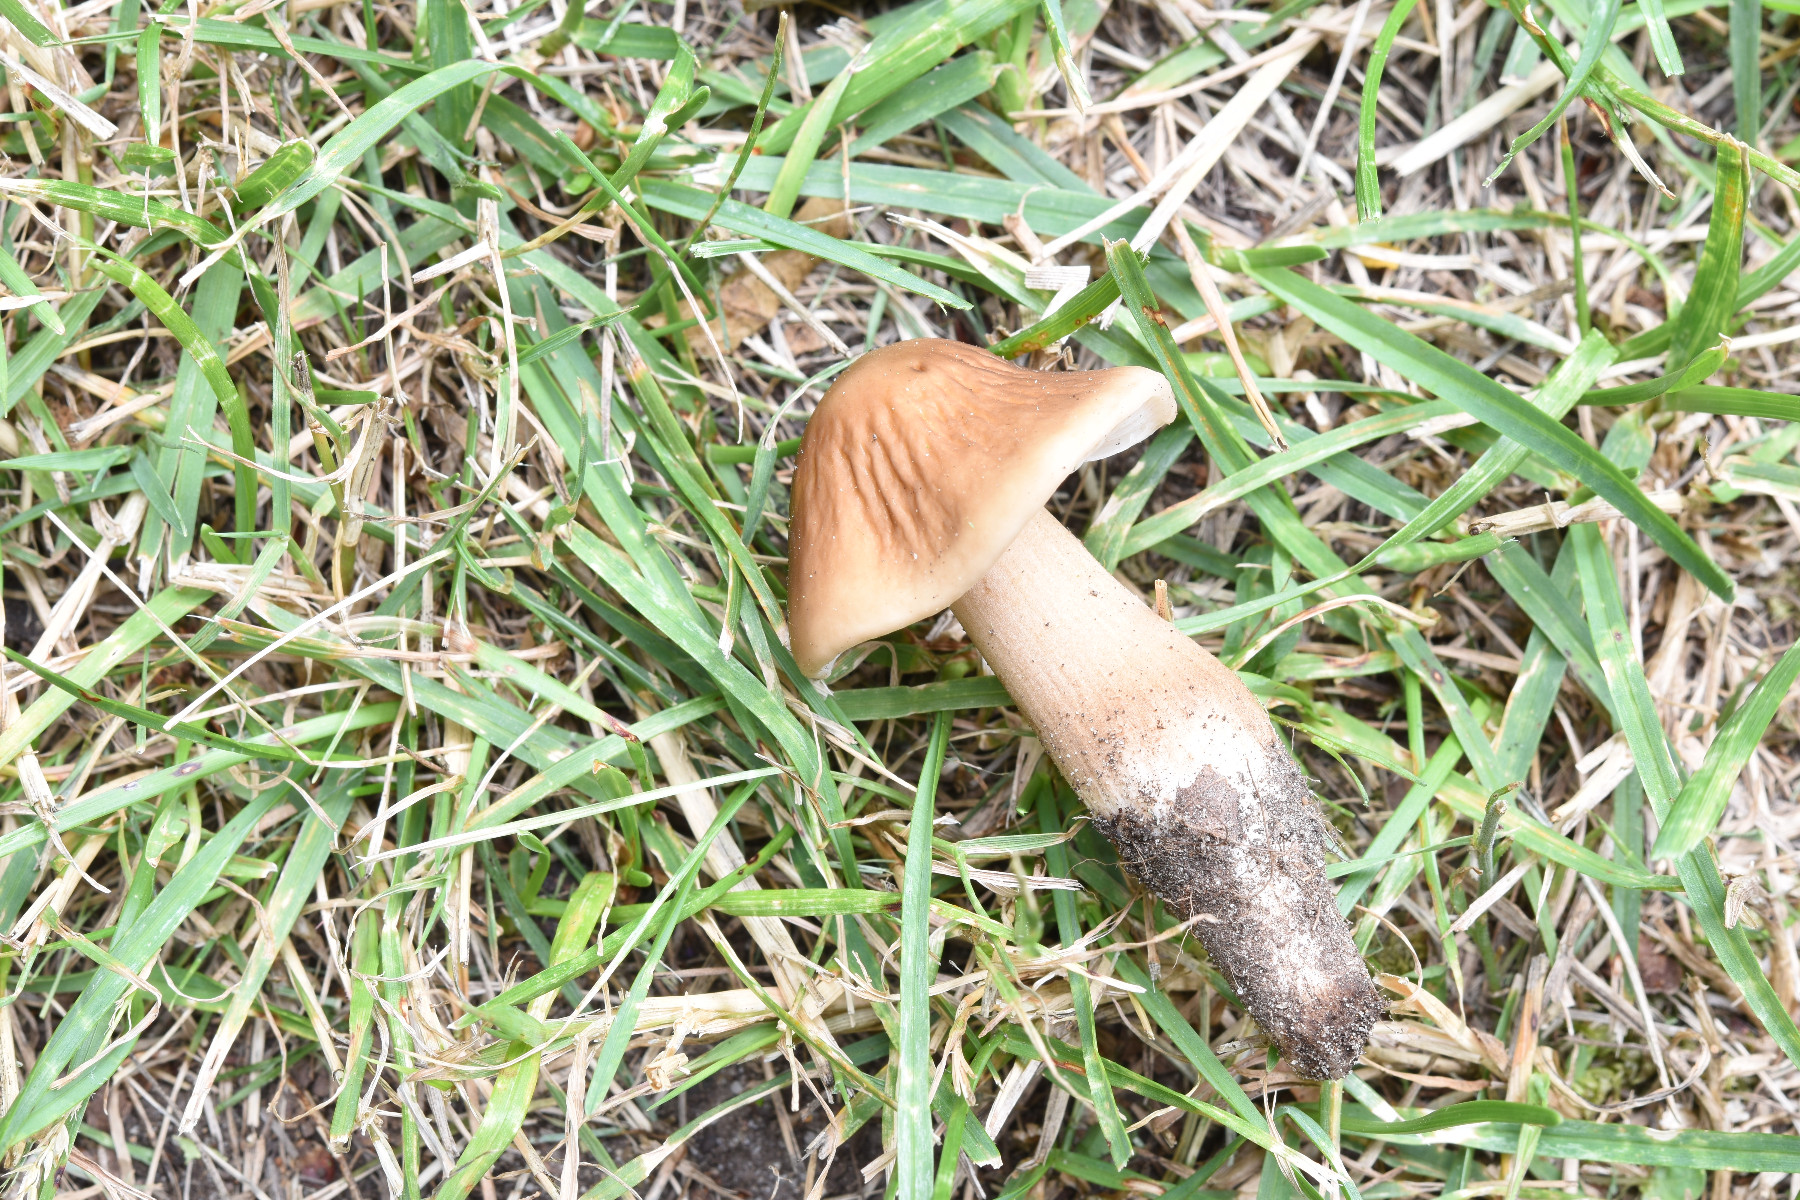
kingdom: Fungi
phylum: Basidiomycota
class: Agaricomycetes
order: Agaricales
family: Physalacriaceae
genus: Hymenopellis
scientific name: Hymenopellis radicata
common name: almindelig pælerodshat
